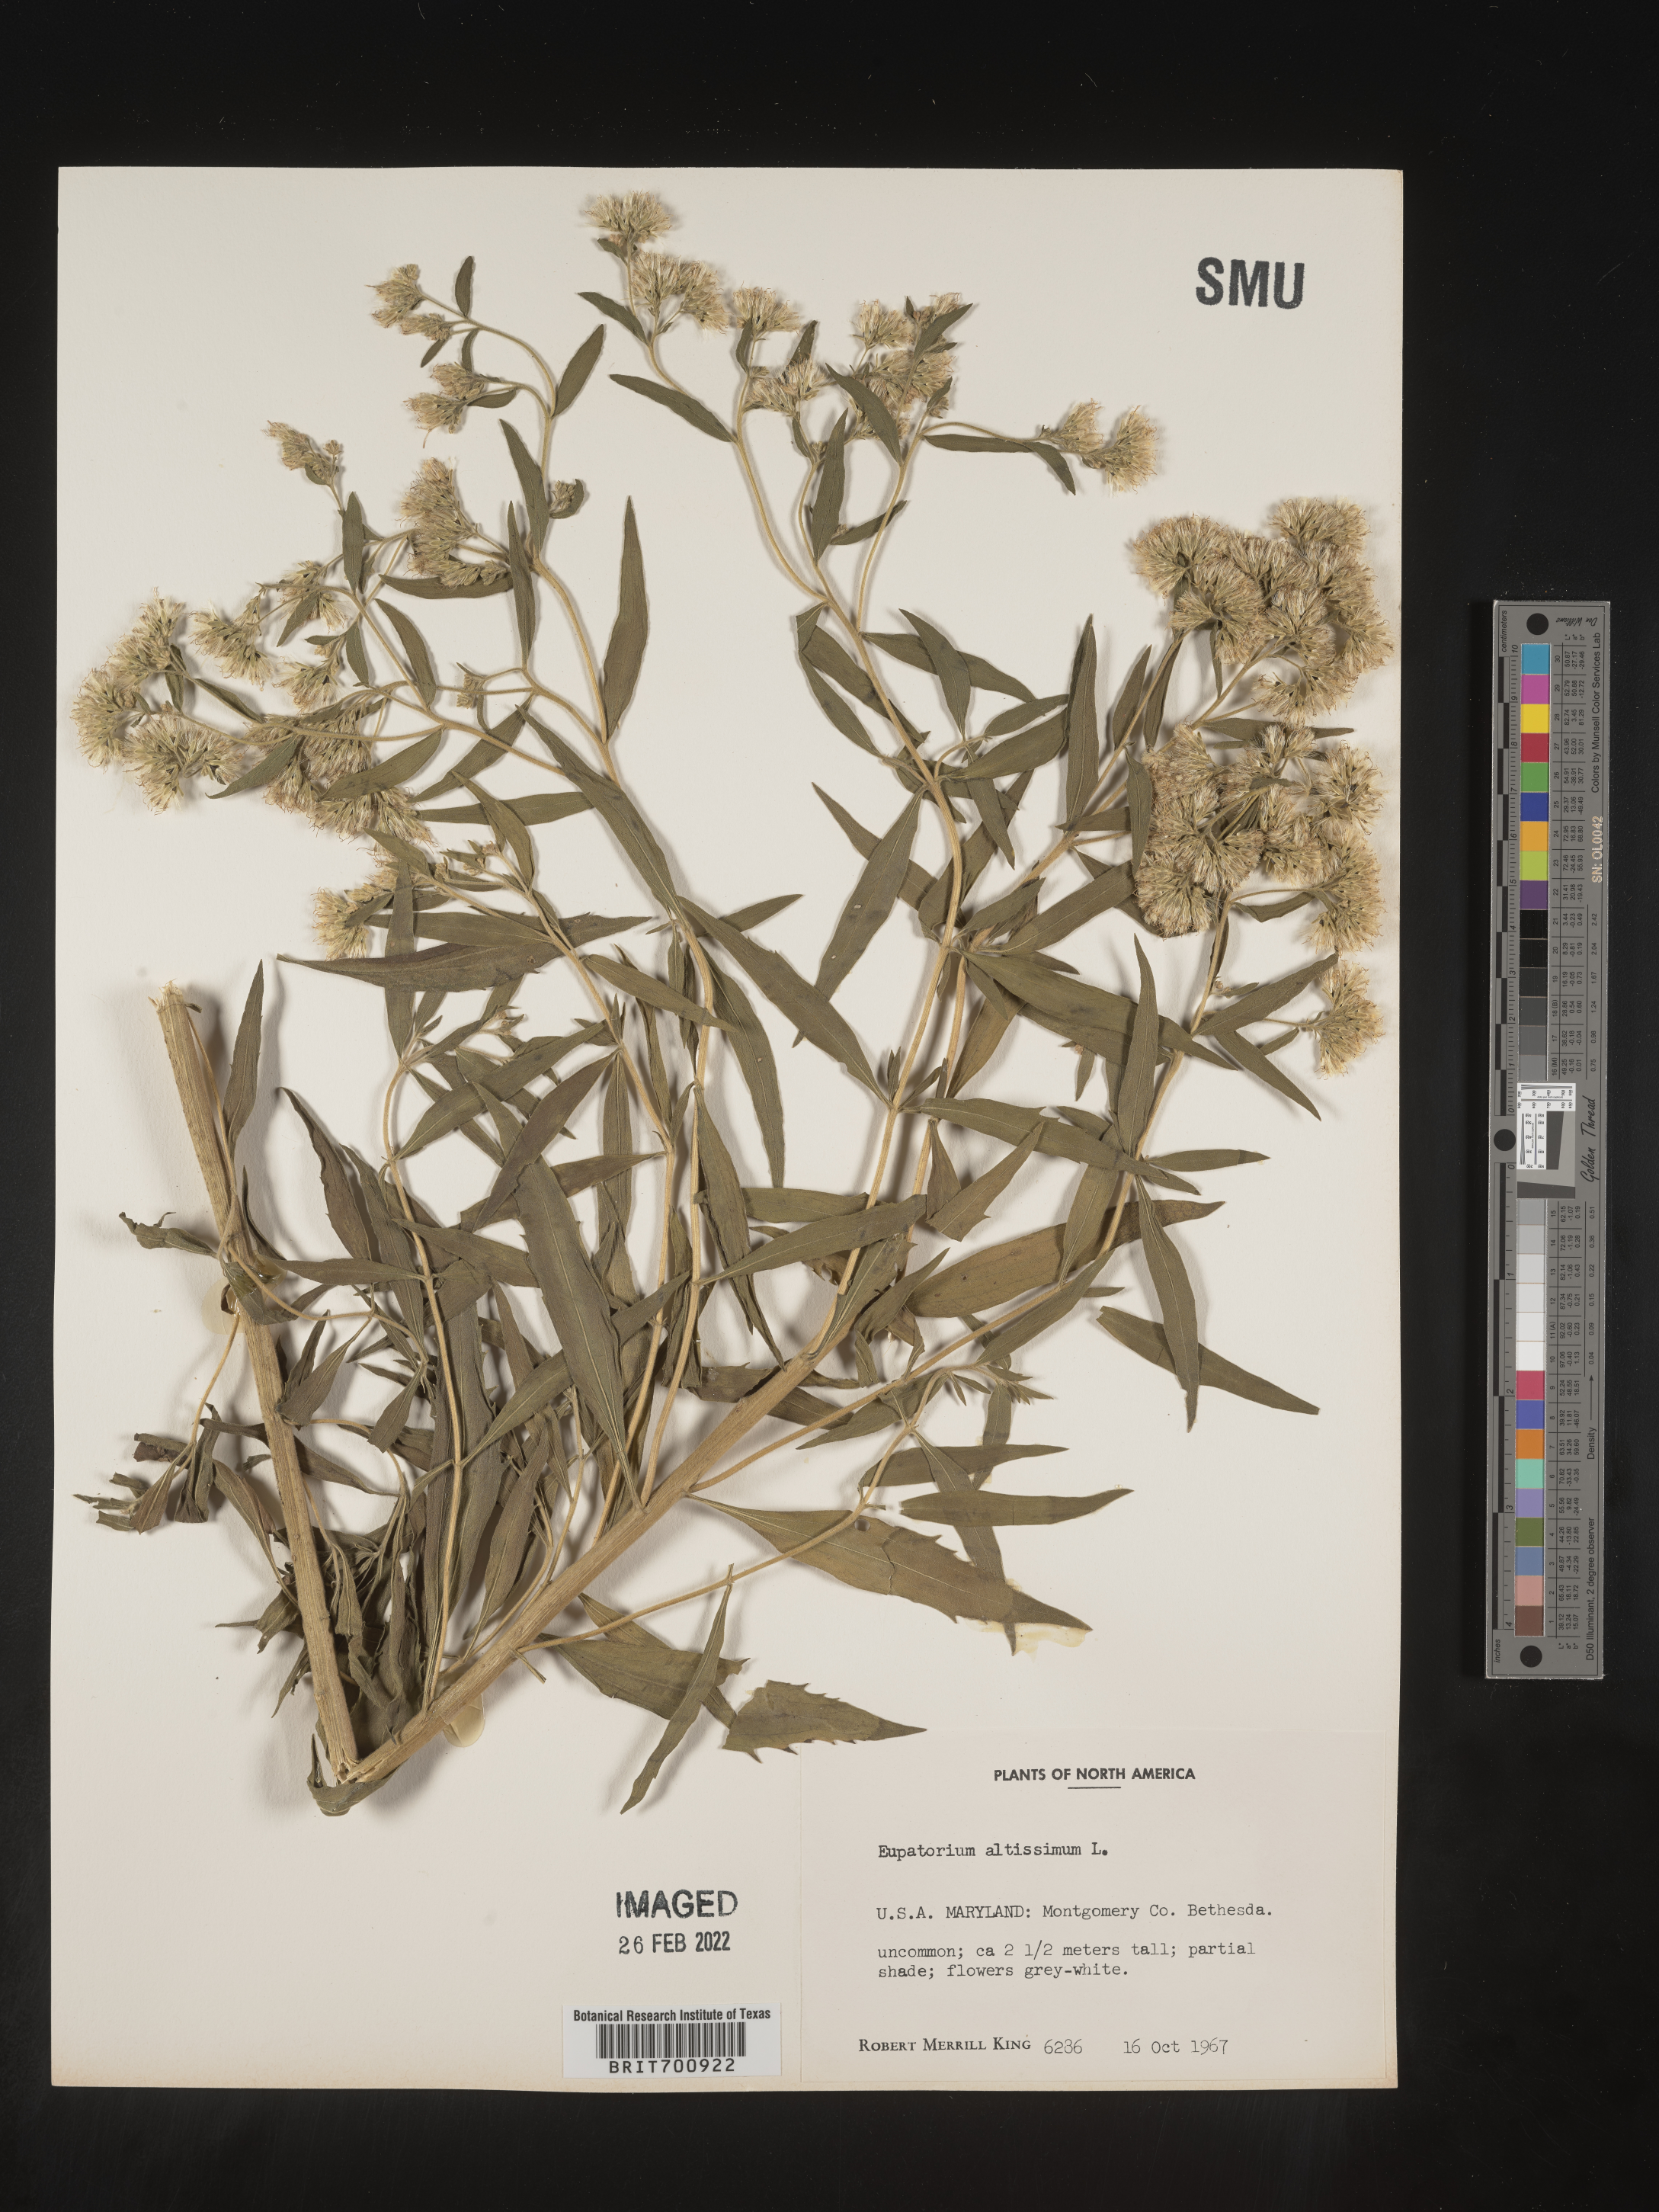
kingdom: Plantae
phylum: Tracheophyta
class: Magnoliopsida
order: Asterales
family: Asteraceae
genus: Eupatorium
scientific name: Eupatorium altissimum
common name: Tall thoroughwort
